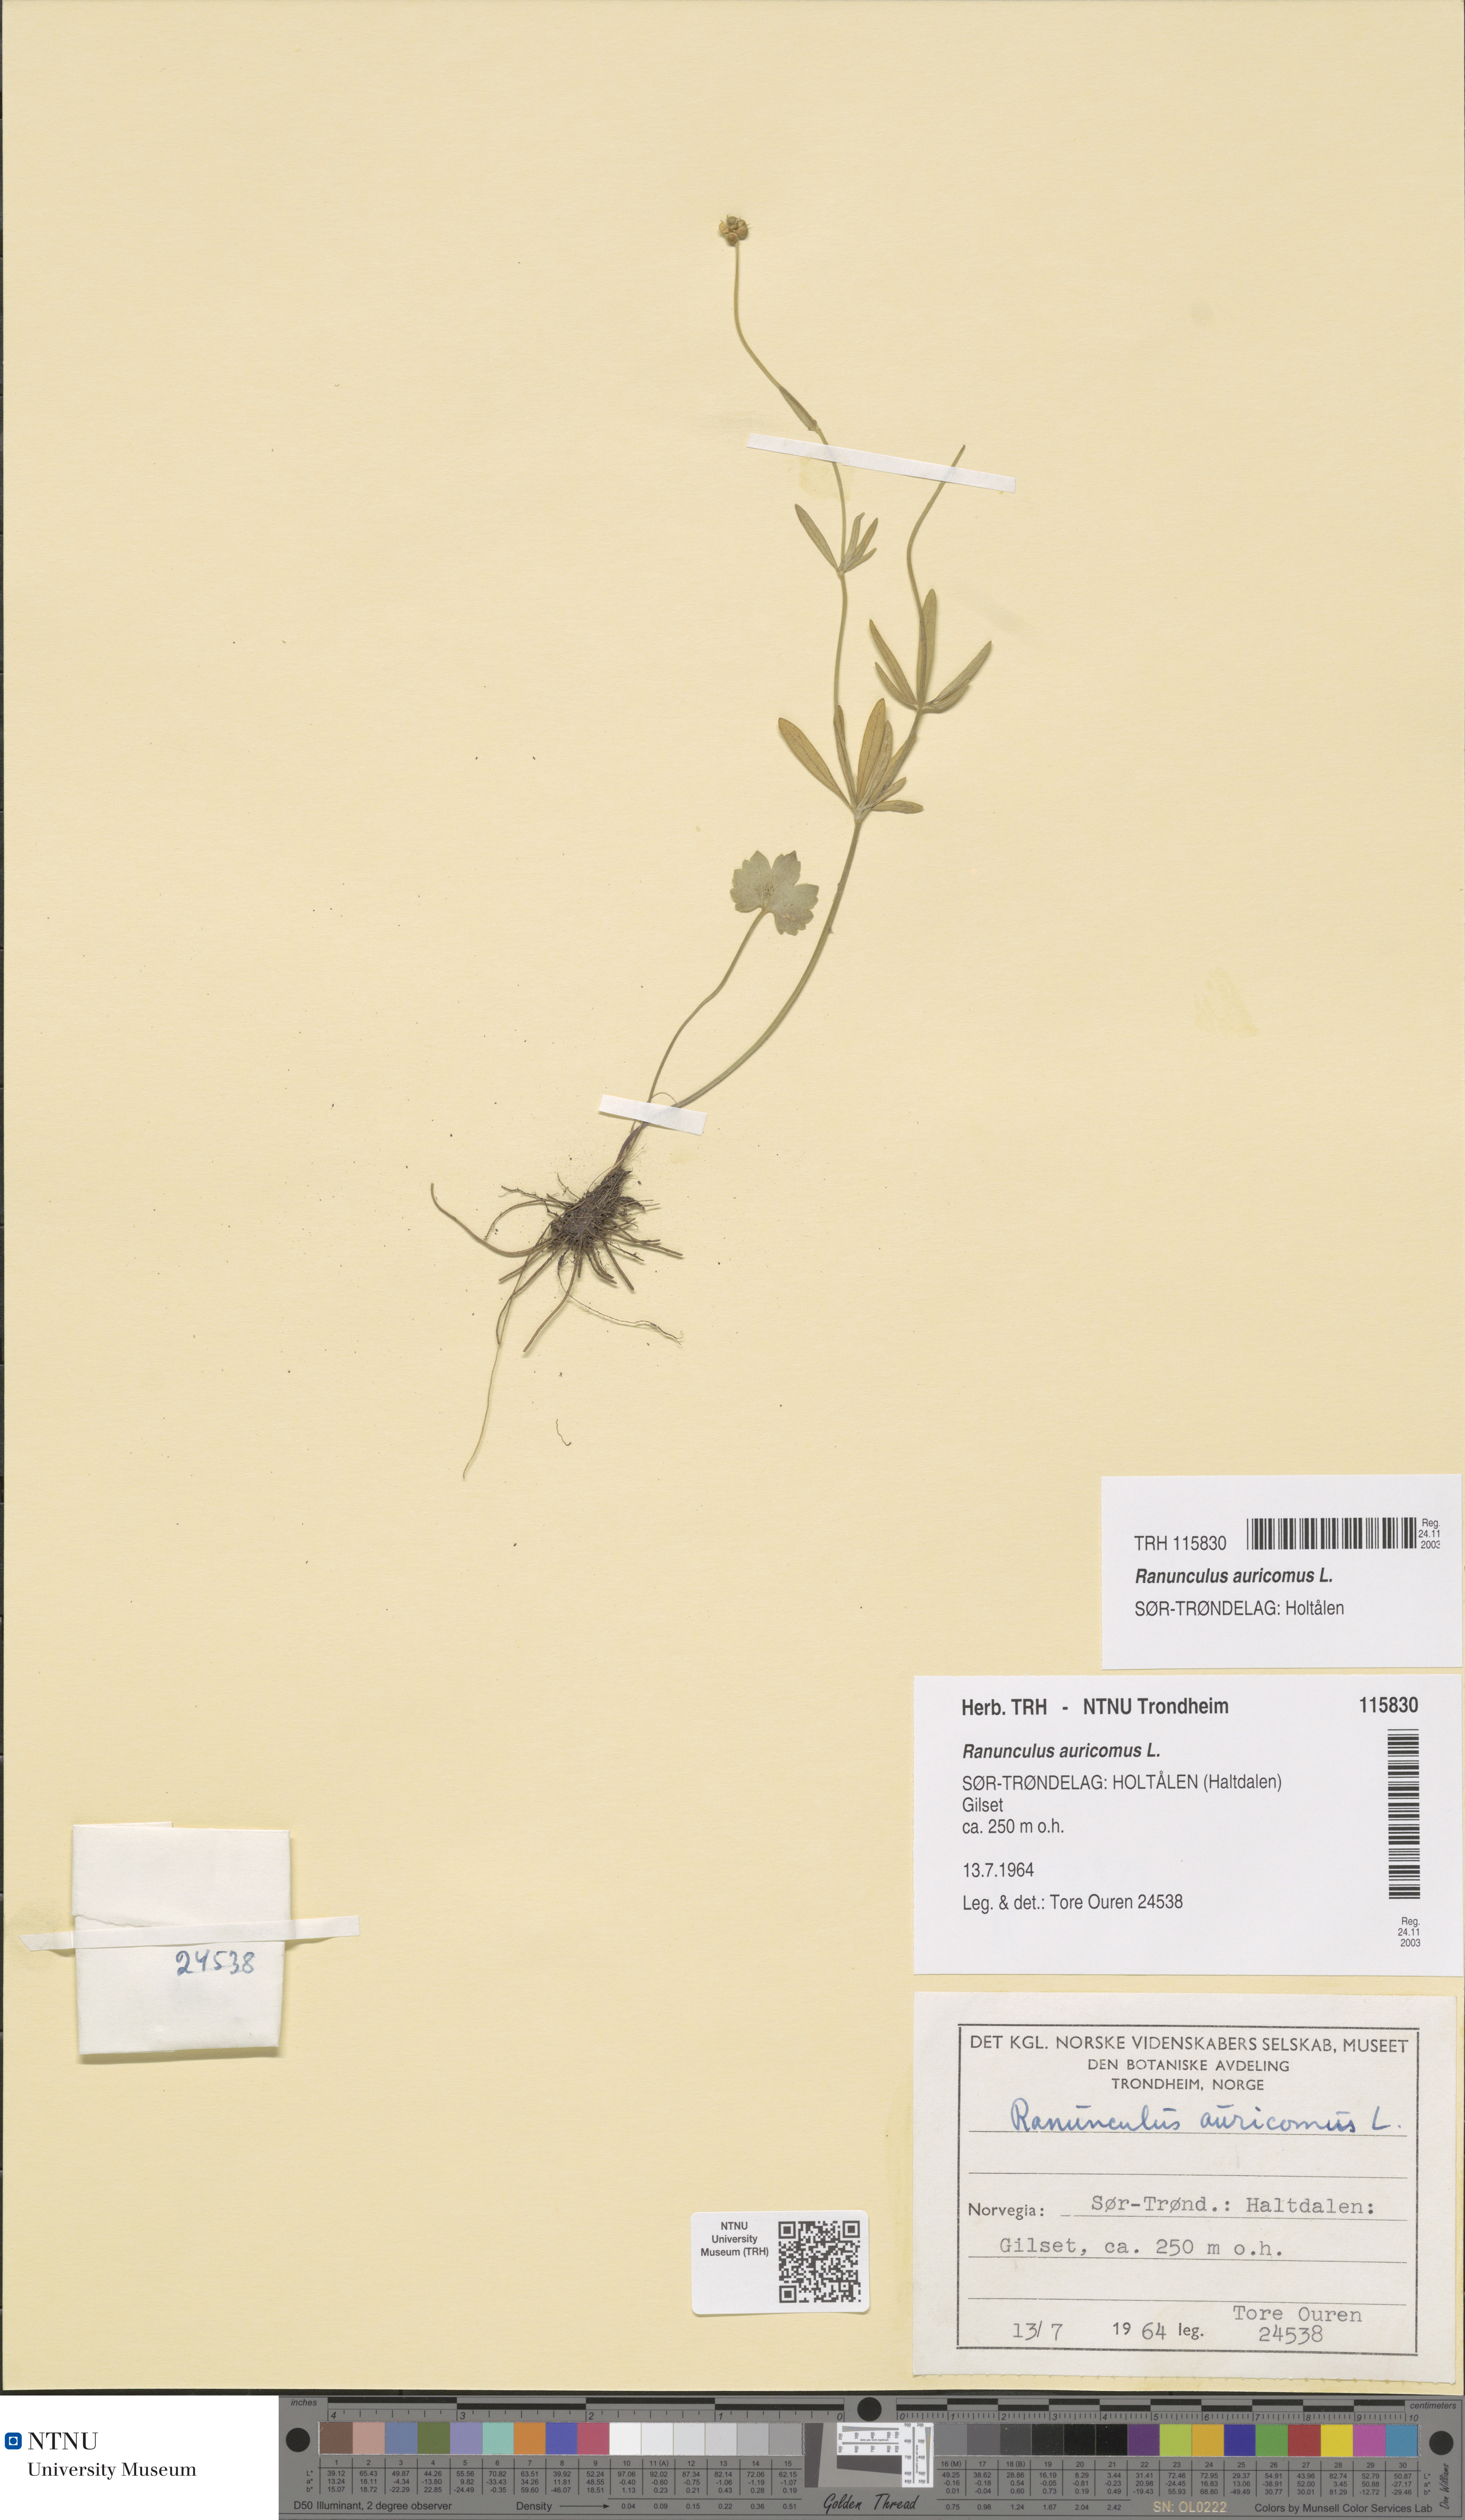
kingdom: Plantae
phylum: Tracheophyta
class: Magnoliopsida
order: Ranunculales
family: Ranunculaceae
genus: Ranunculus
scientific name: Ranunculus auricomus
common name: Goldilocks buttercup
